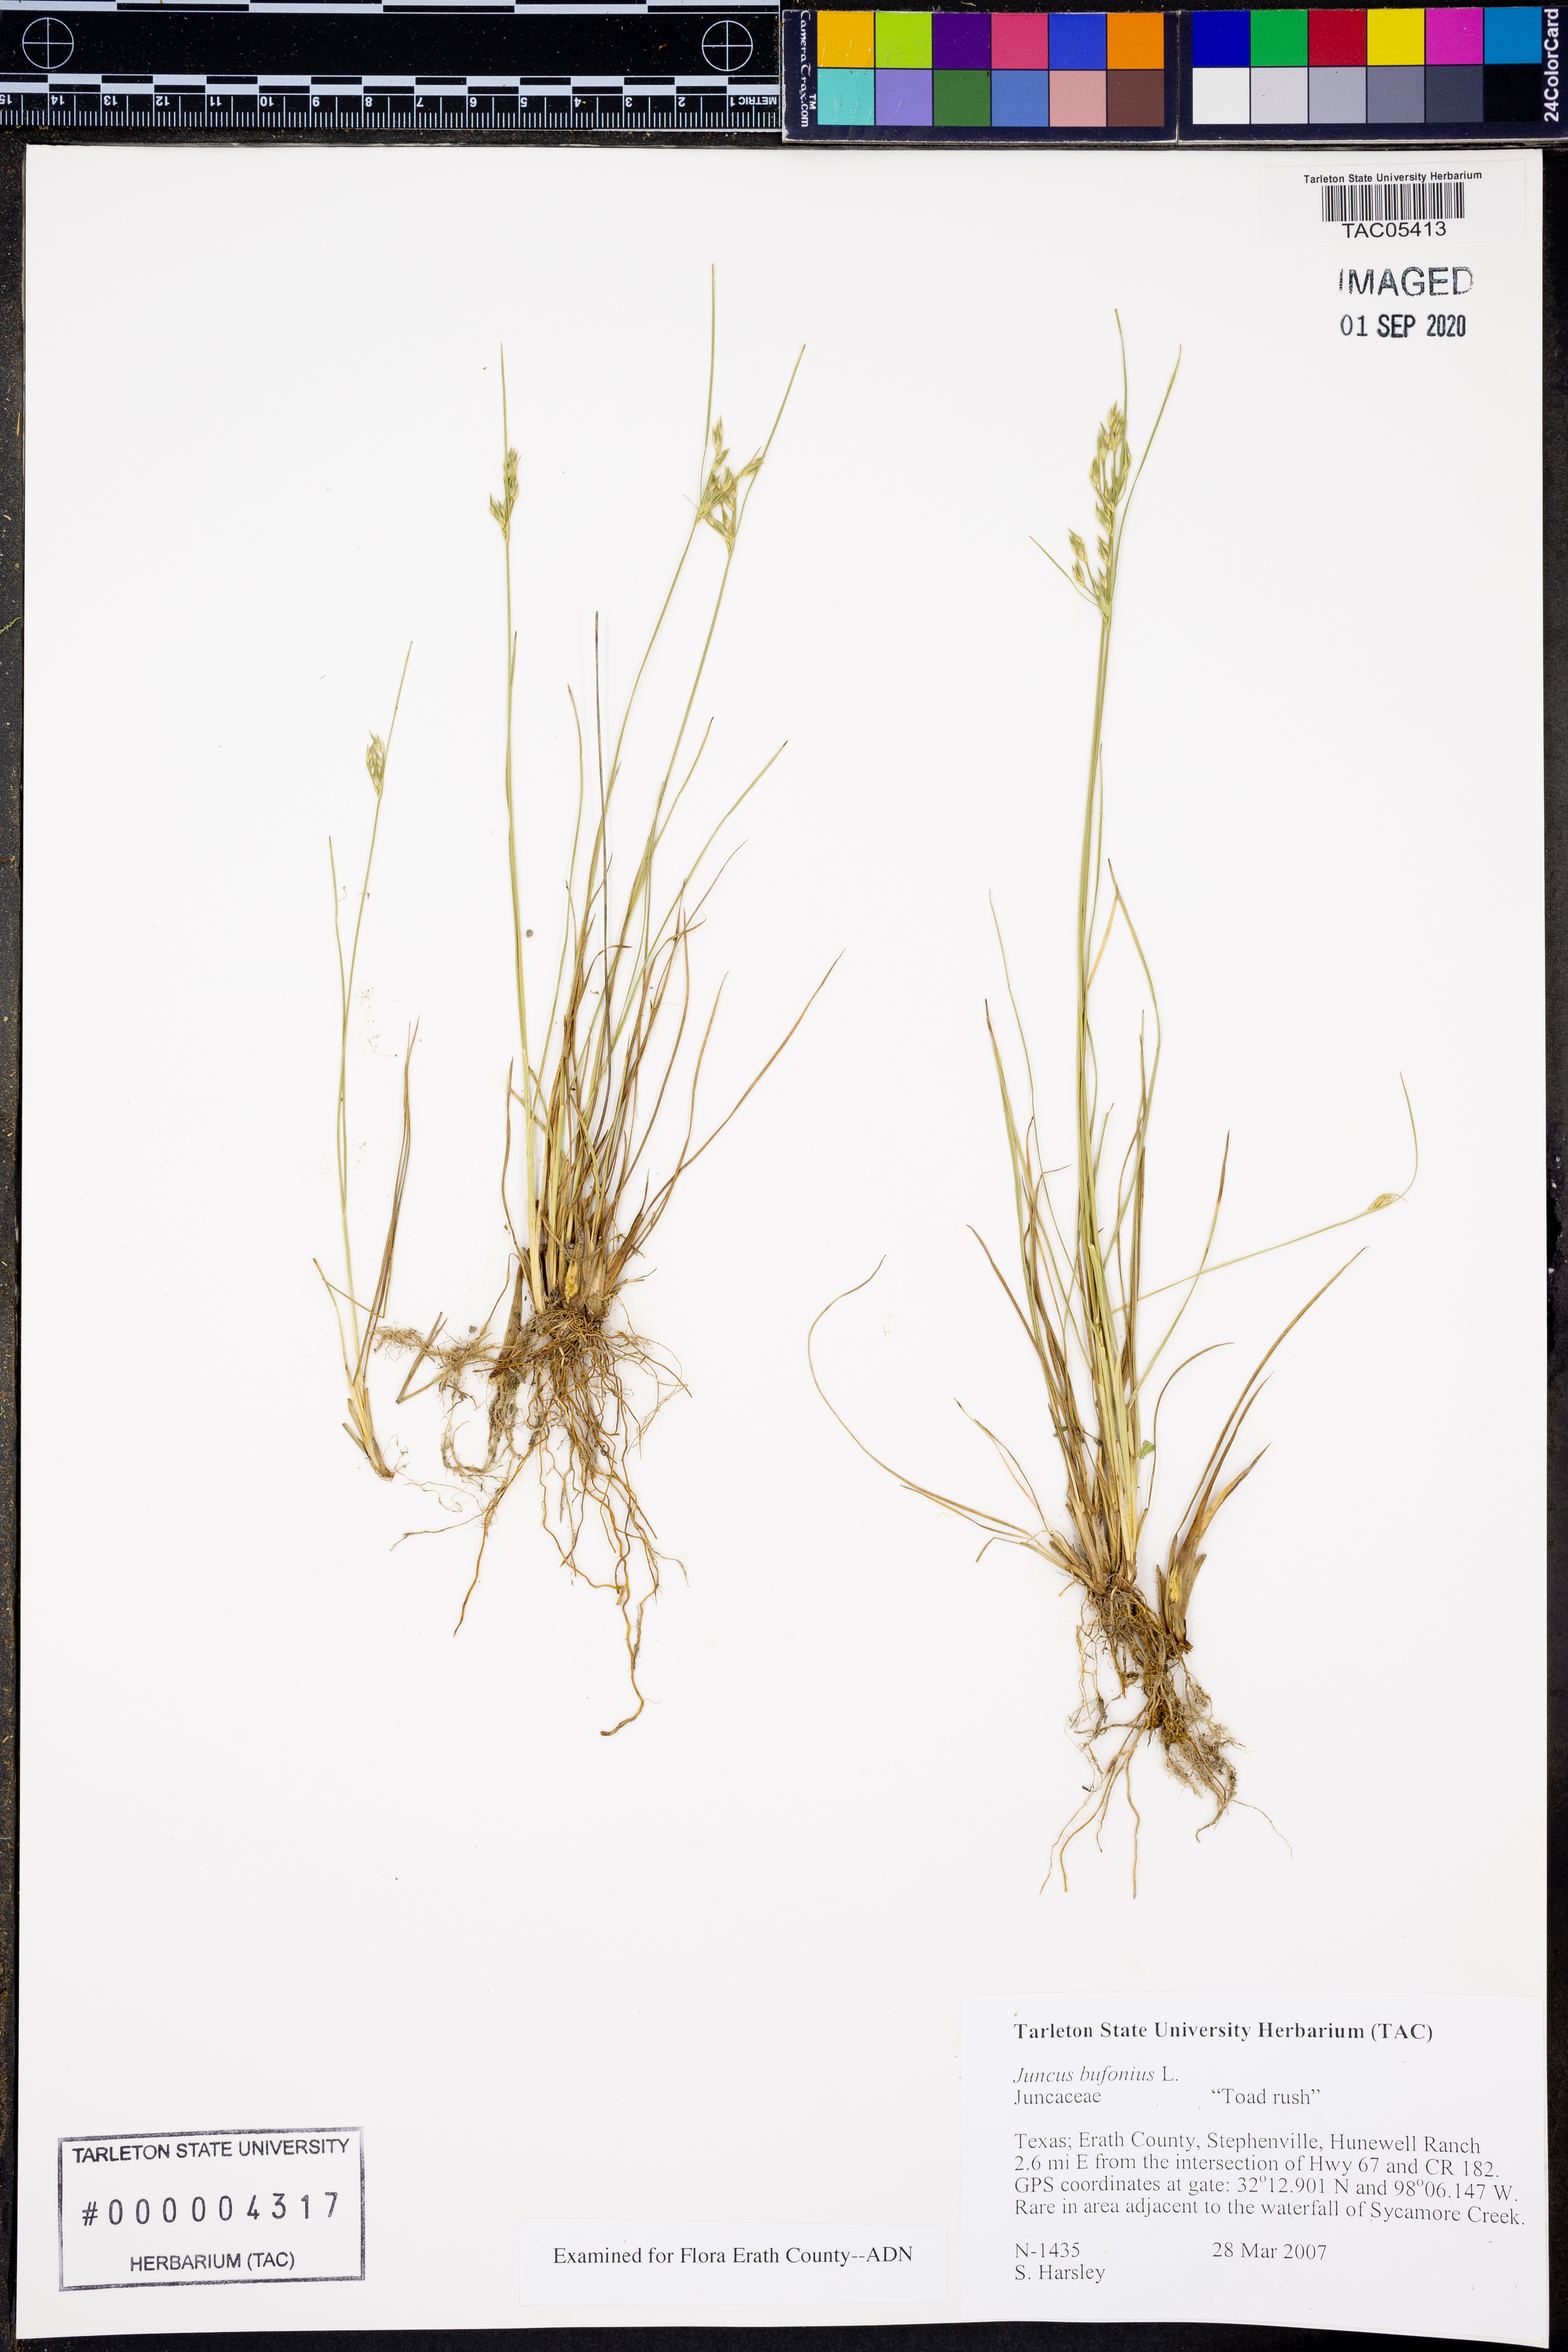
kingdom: Plantae
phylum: Tracheophyta
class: Liliopsida
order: Poales
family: Juncaceae
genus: Juncus
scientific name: Juncus bufonius
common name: Toad rush
